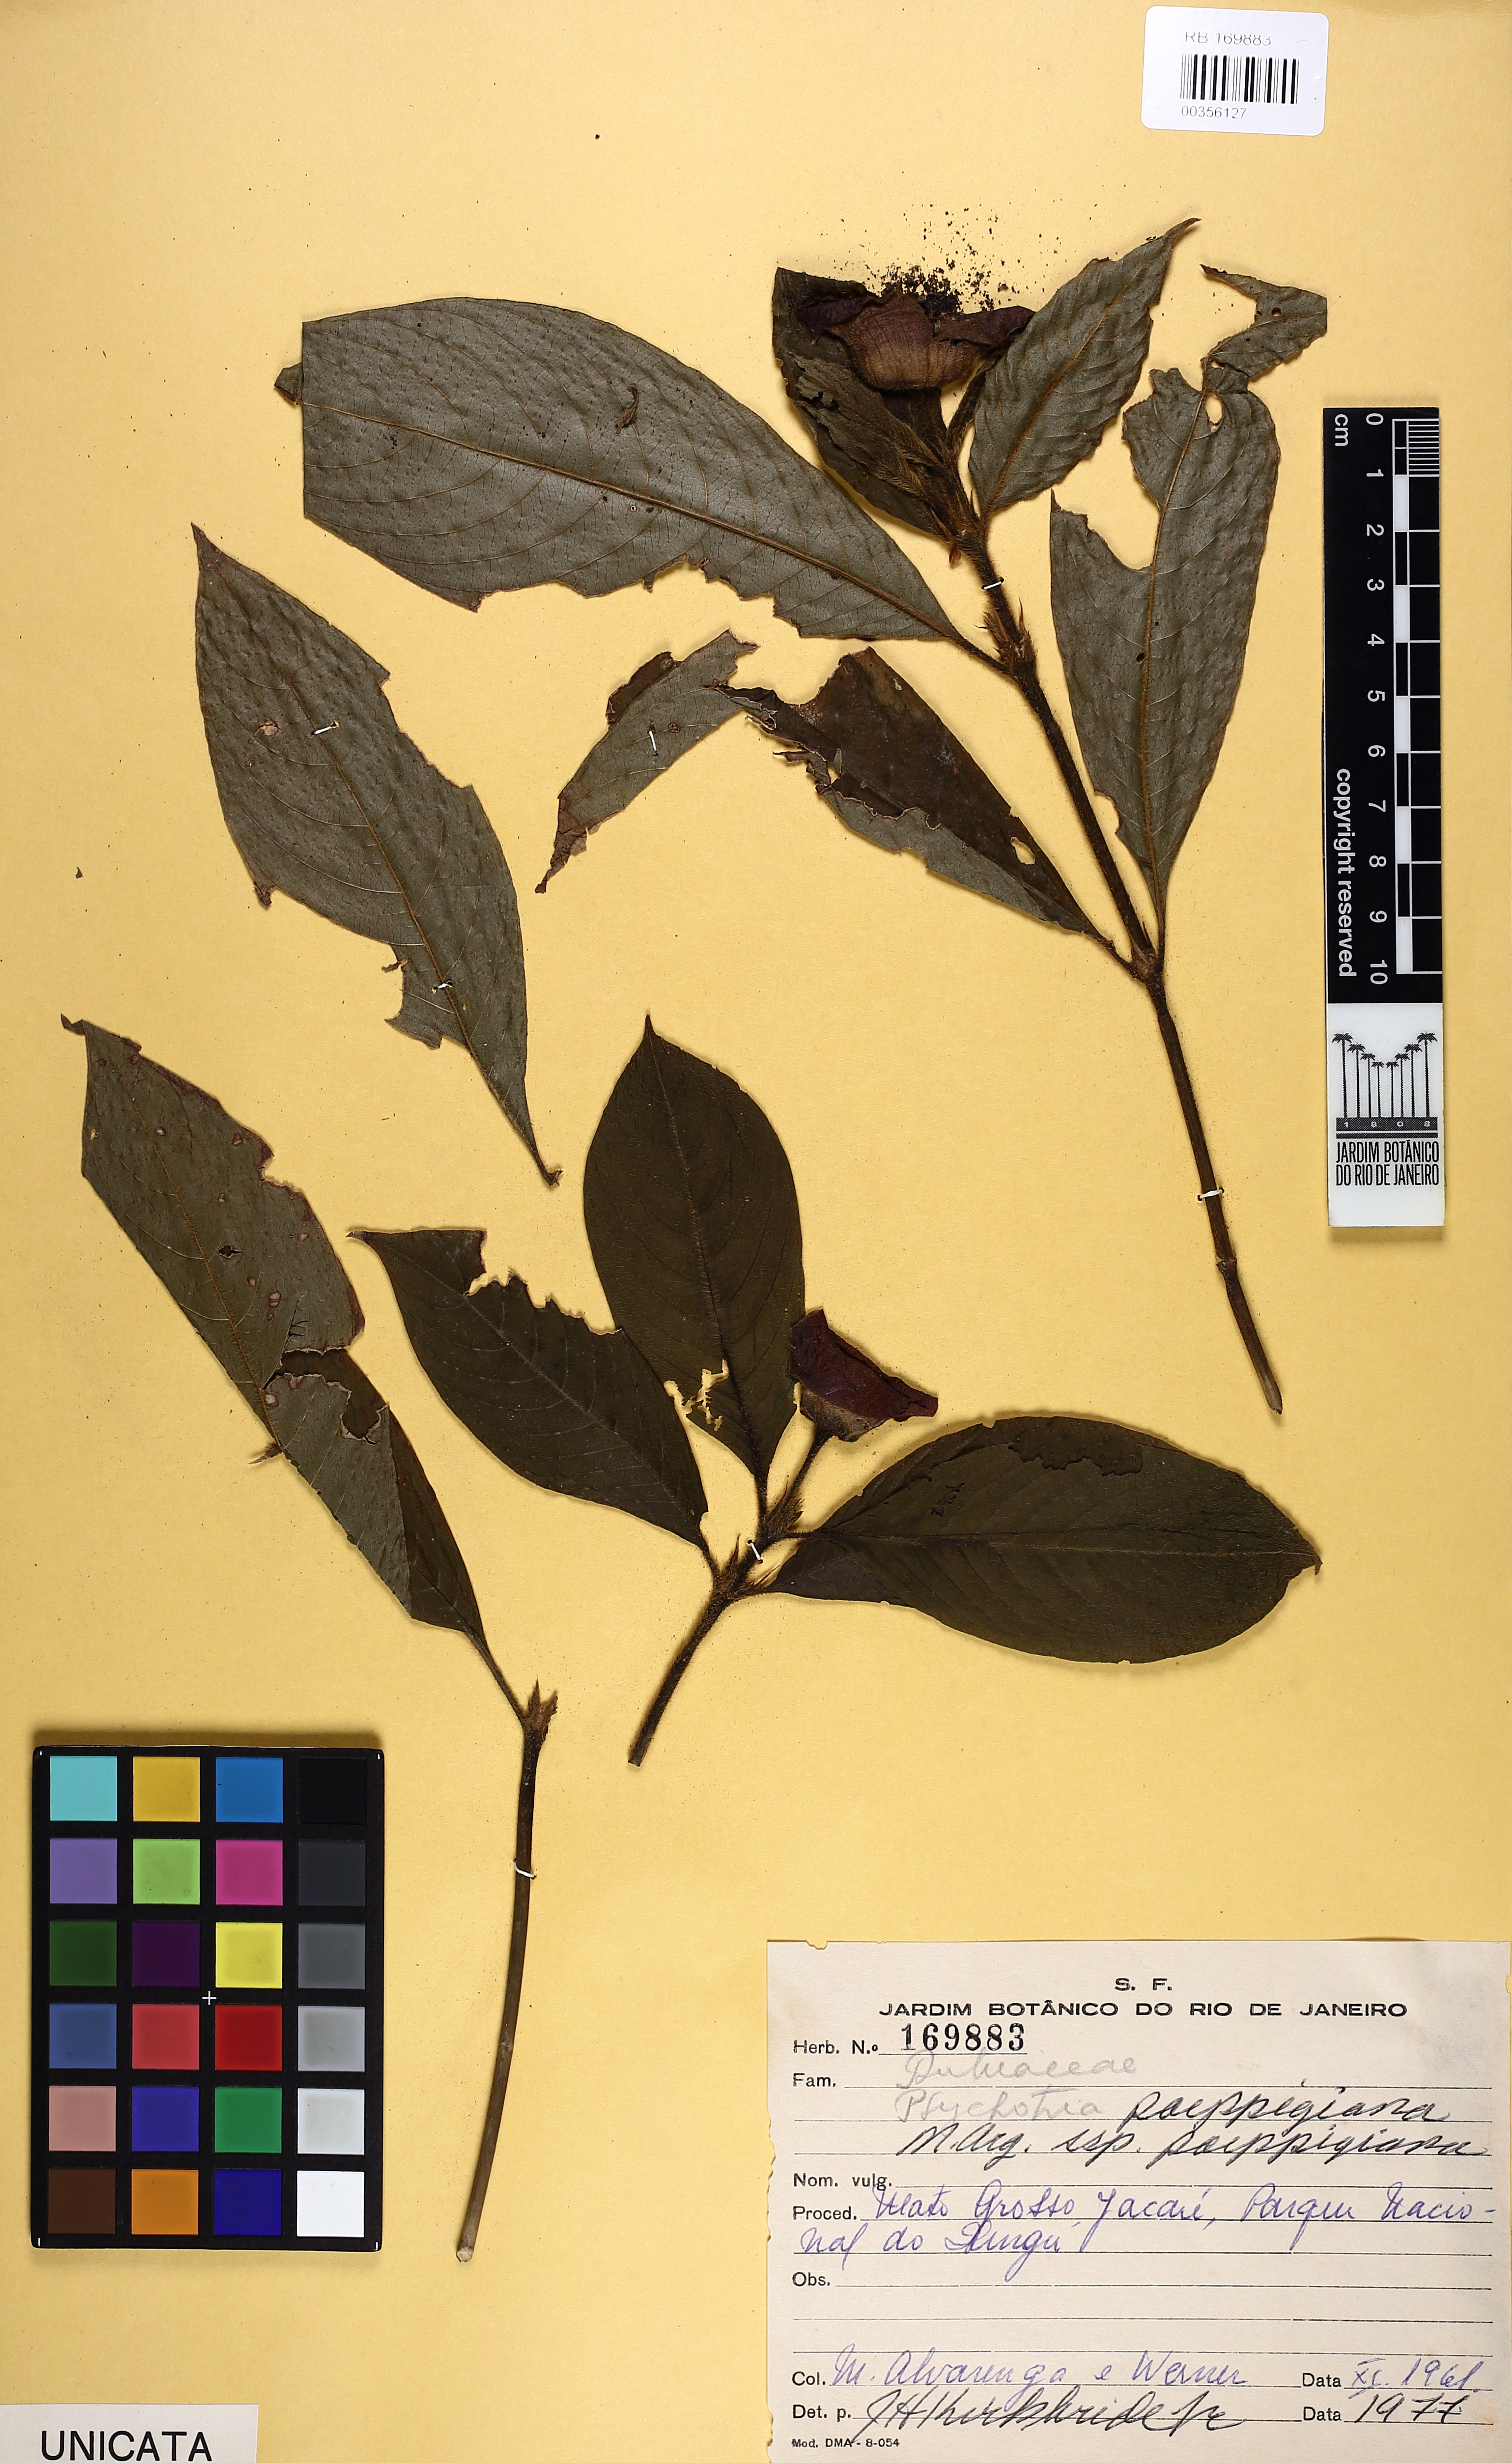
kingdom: Plantae
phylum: Tracheophyta
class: Magnoliopsida
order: Gentianales
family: Rubiaceae
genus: Palicourea
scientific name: Palicourea tomentosa
